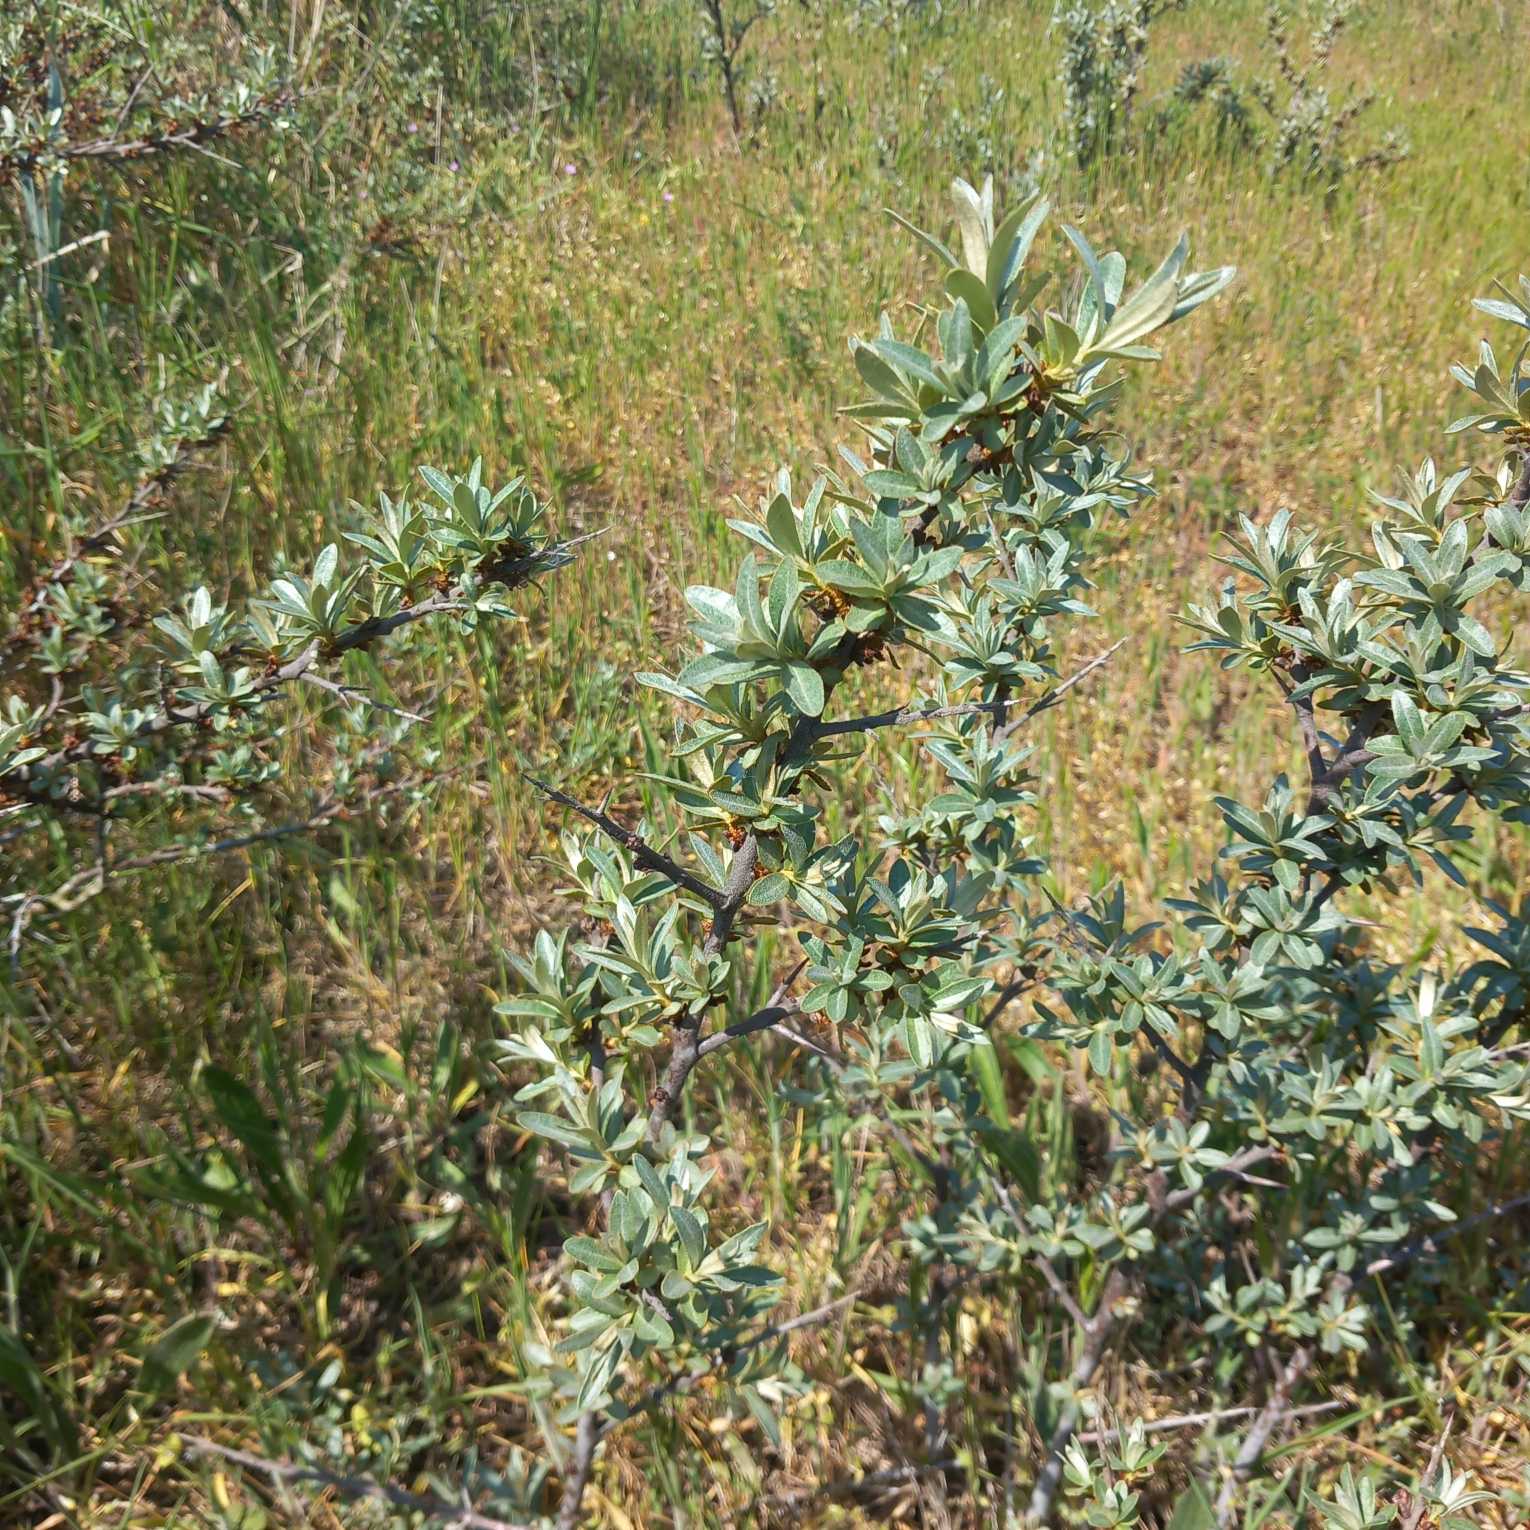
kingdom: Plantae
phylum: Tracheophyta
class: Magnoliopsida
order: Rosales
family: Elaeagnaceae
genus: Hippophae
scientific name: Hippophae rhamnoides
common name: Havtorn
